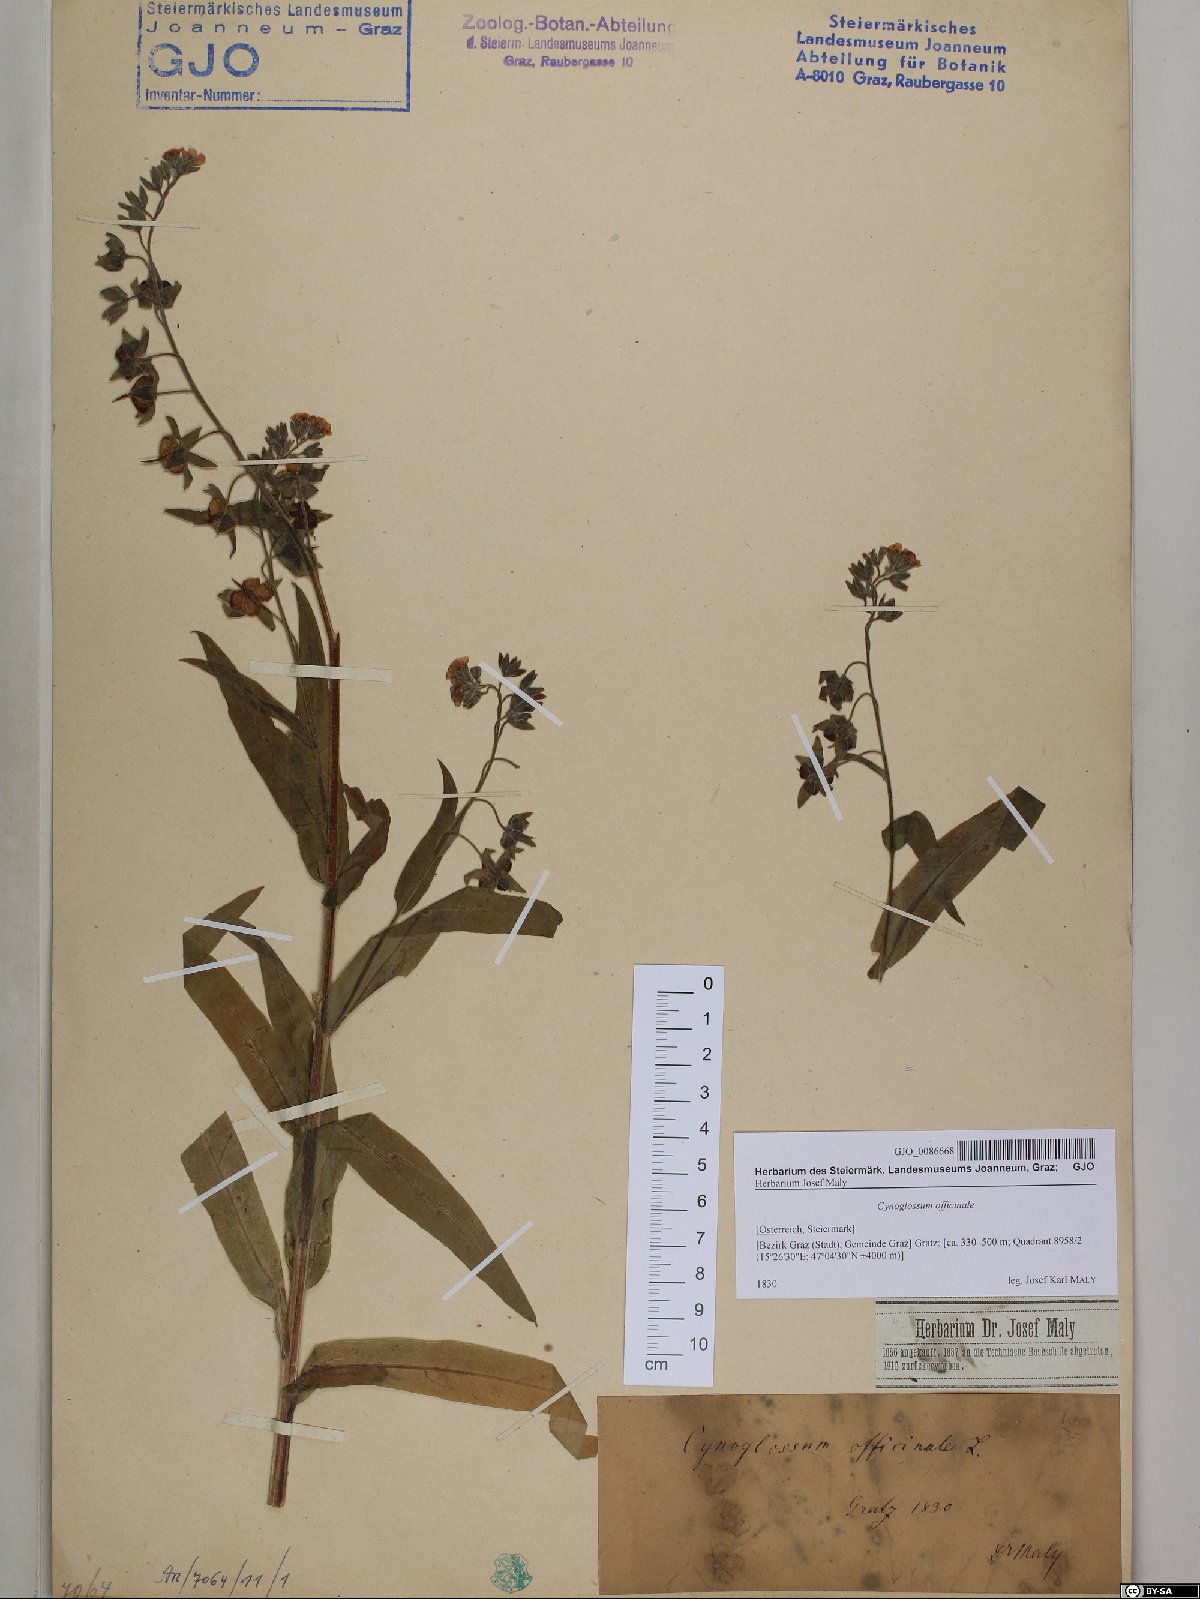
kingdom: Plantae
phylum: Tracheophyta
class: Magnoliopsida
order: Boraginales
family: Boraginaceae
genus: Cynoglossum
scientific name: Cynoglossum officinale
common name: Hound's-tongue
